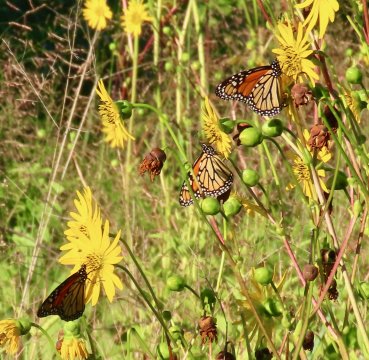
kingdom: Animalia
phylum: Arthropoda
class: Insecta
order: Lepidoptera
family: Nymphalidae
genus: Danaus
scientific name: Danaus plexippus
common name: Monarch
